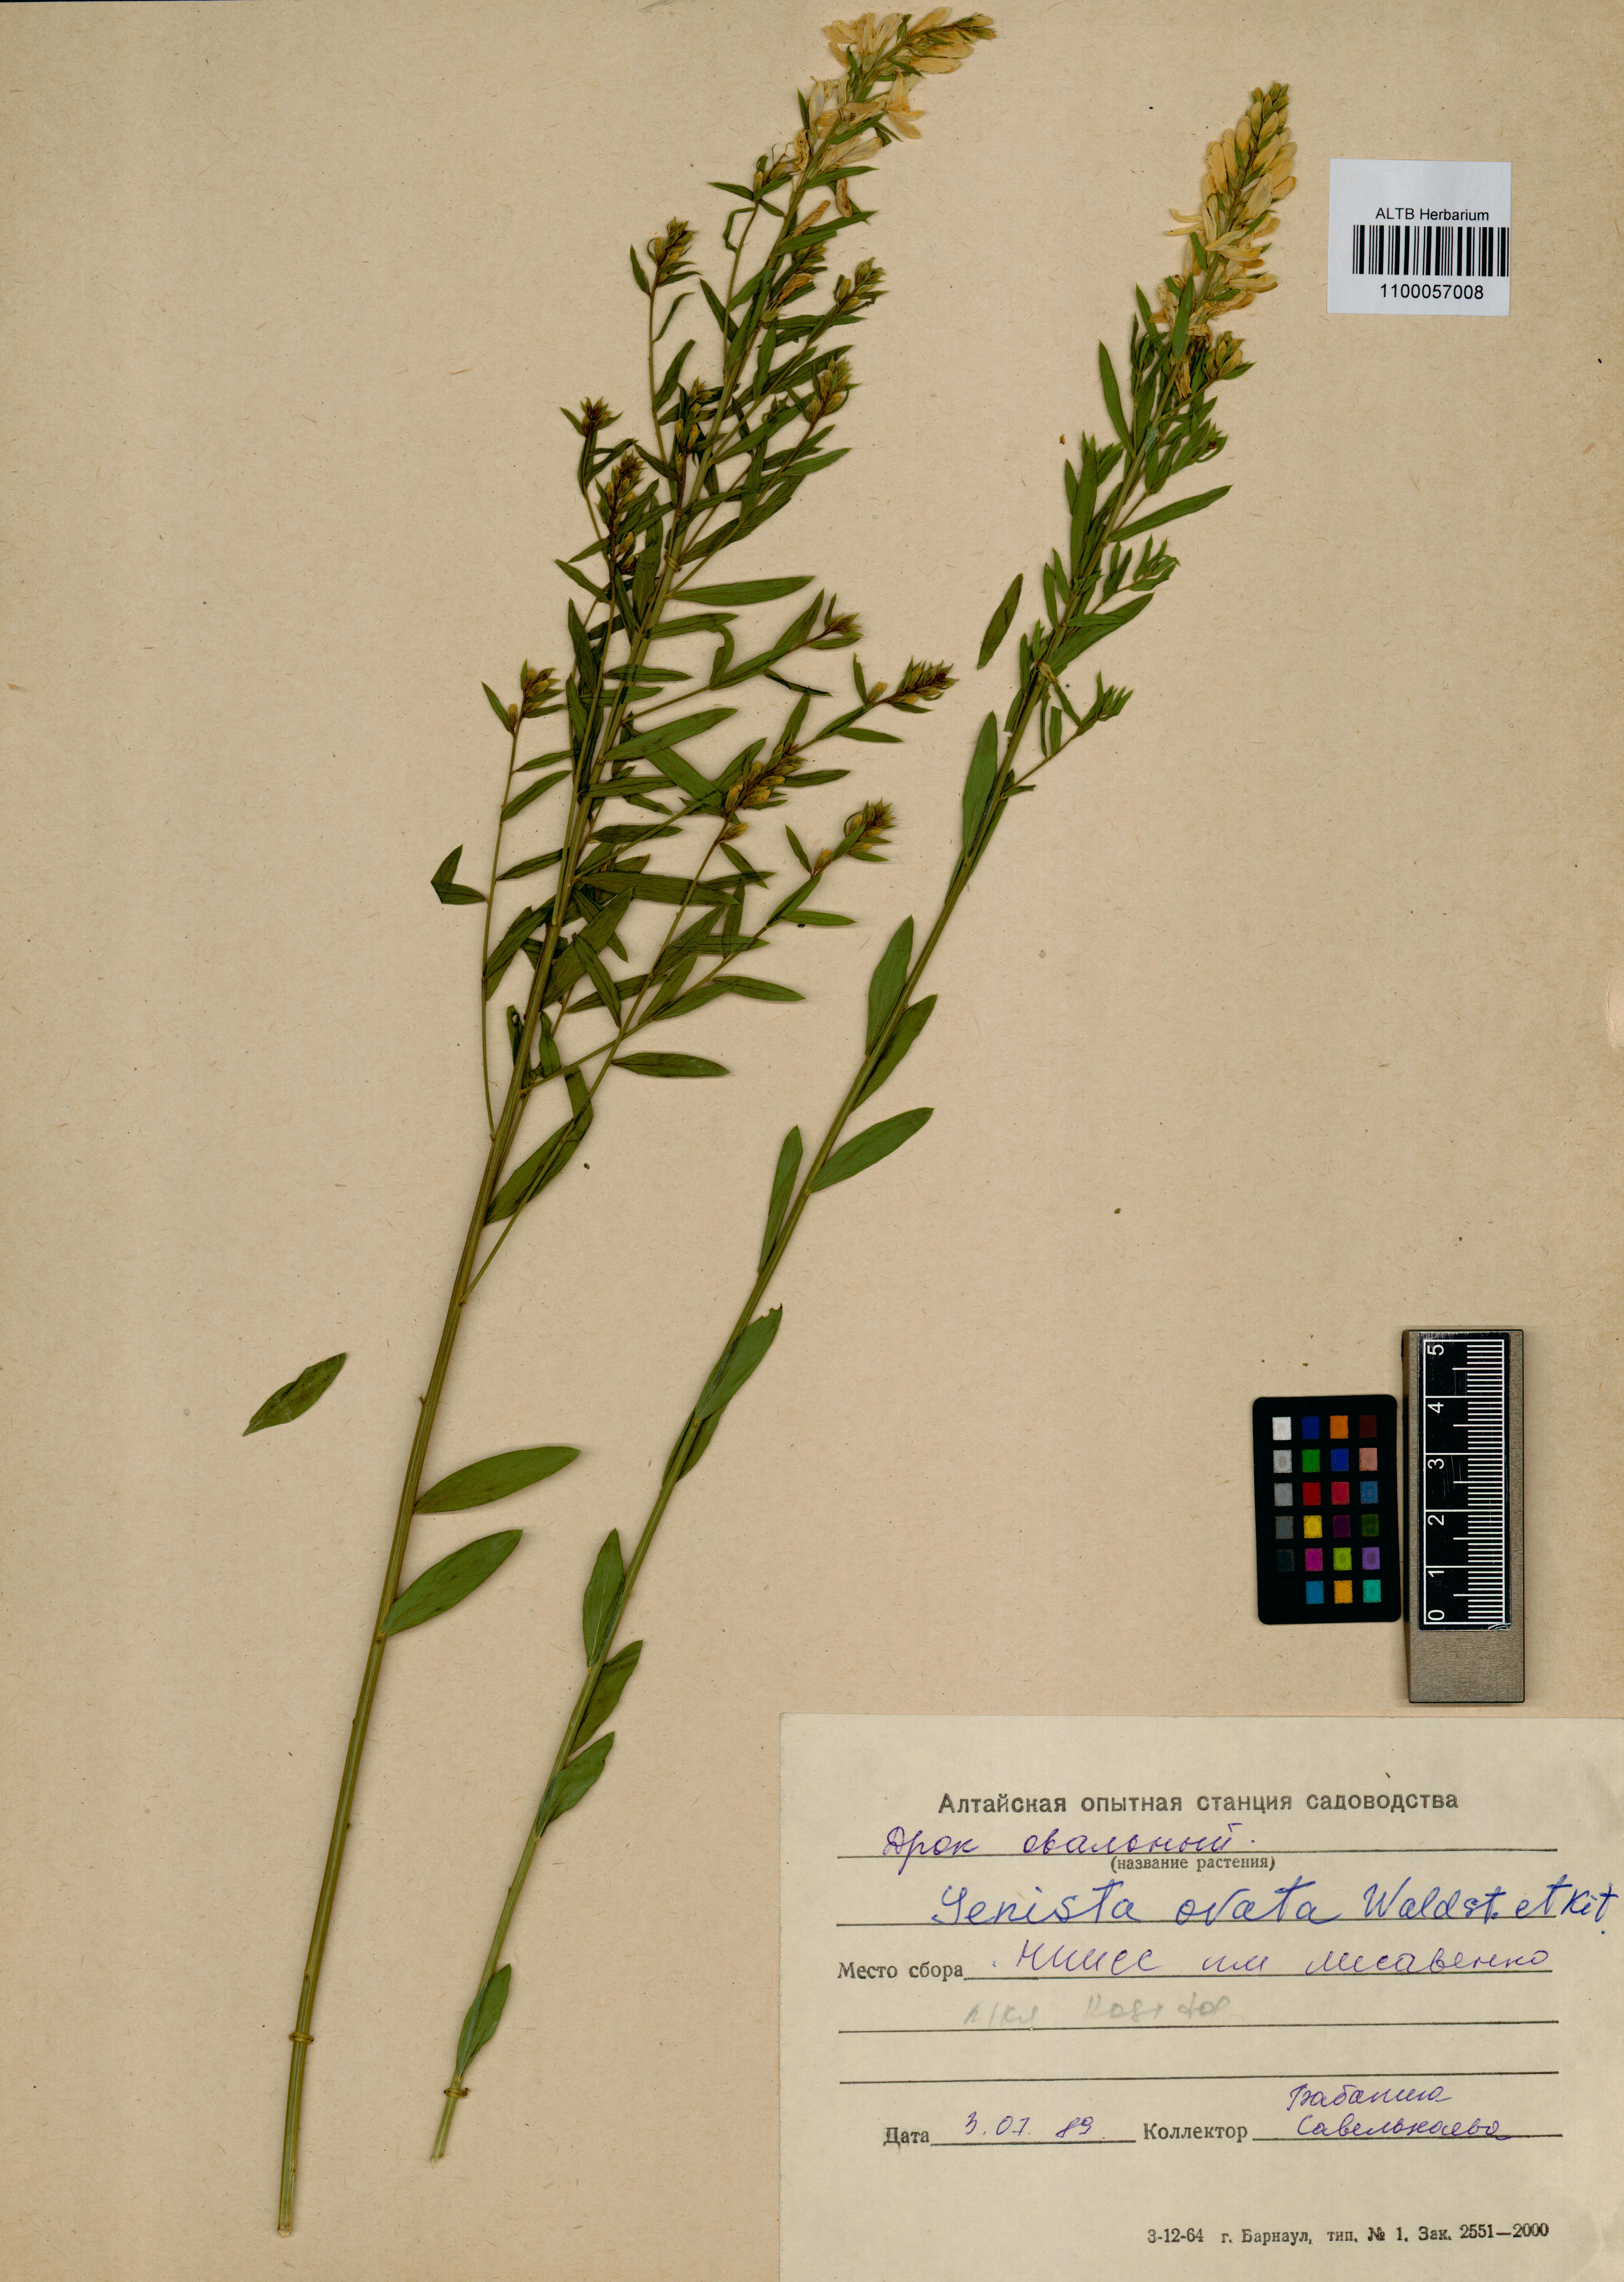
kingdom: Plantae
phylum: Tracheophyta
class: Magnoliopsida
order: Fabales
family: Fabaceae
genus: Genista
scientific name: Genista tinctoria
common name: Dyer's greenweed
